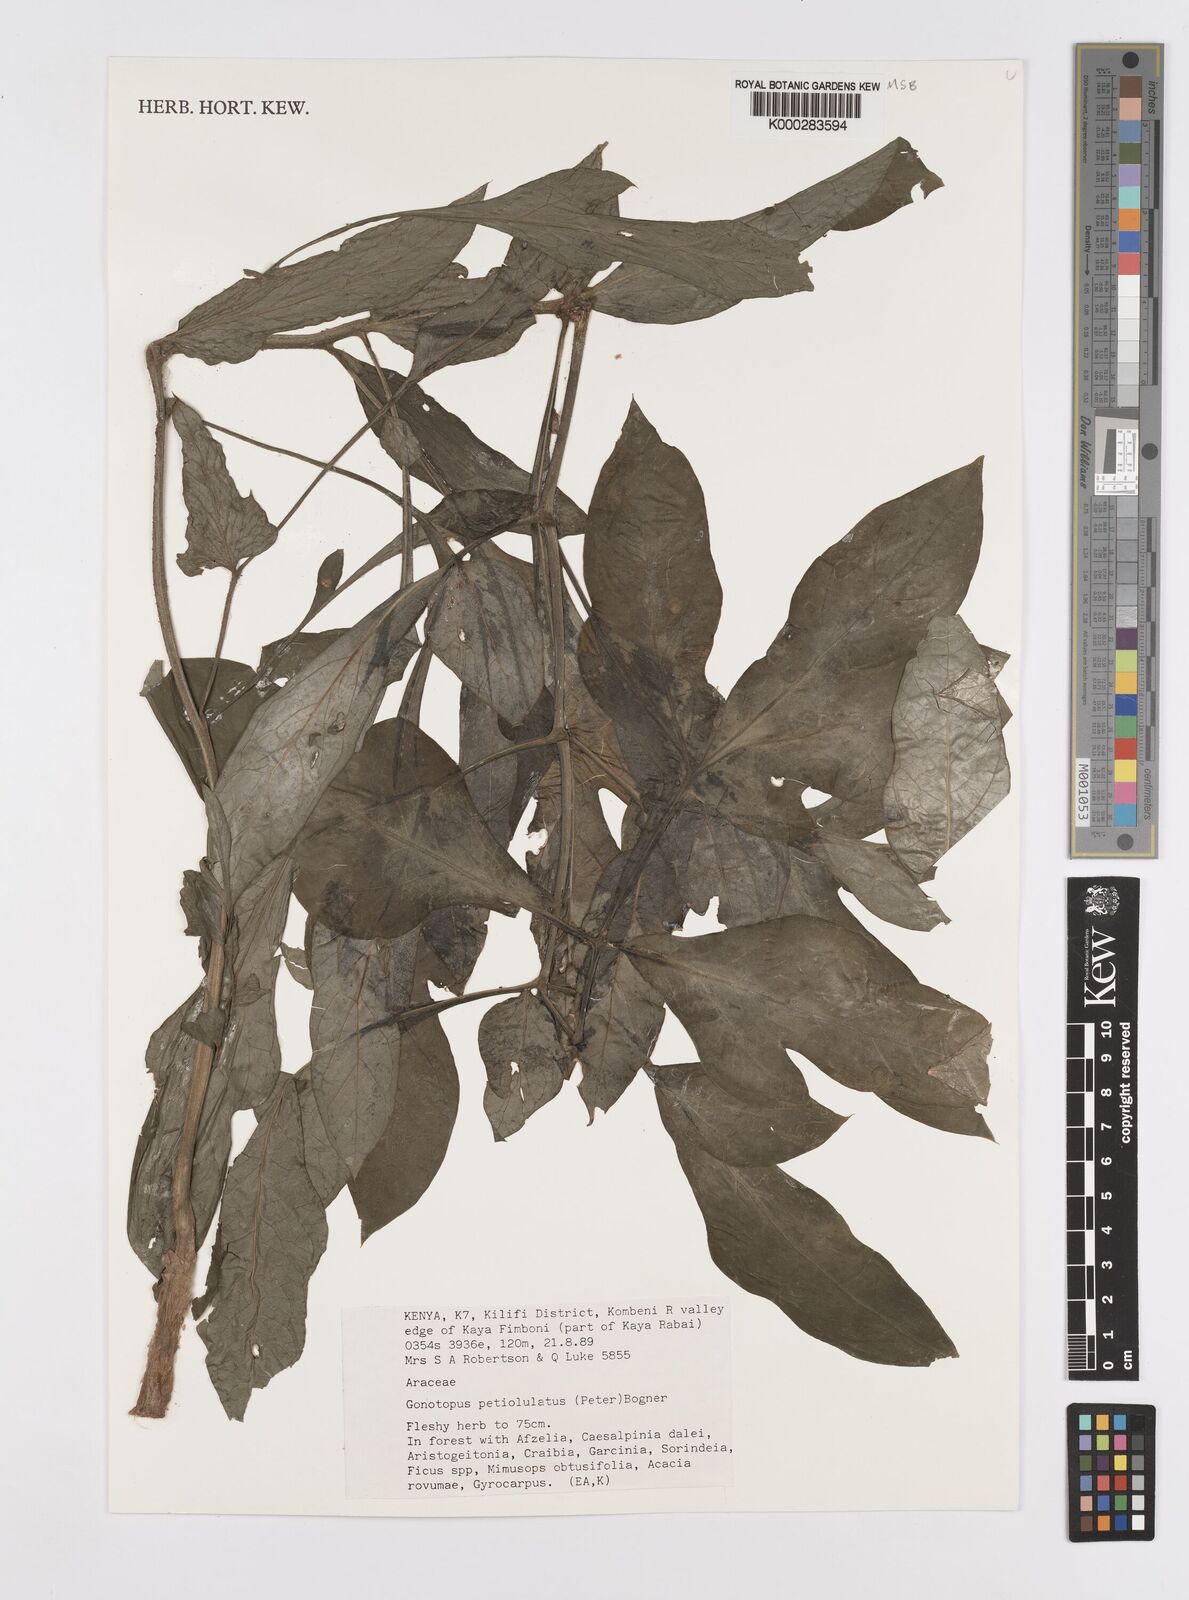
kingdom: Plantae
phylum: Tracheophyta
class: Liliopsida
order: Alismatales
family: Araceae
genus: Gonatopus
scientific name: Gonatopus petiolulatus
